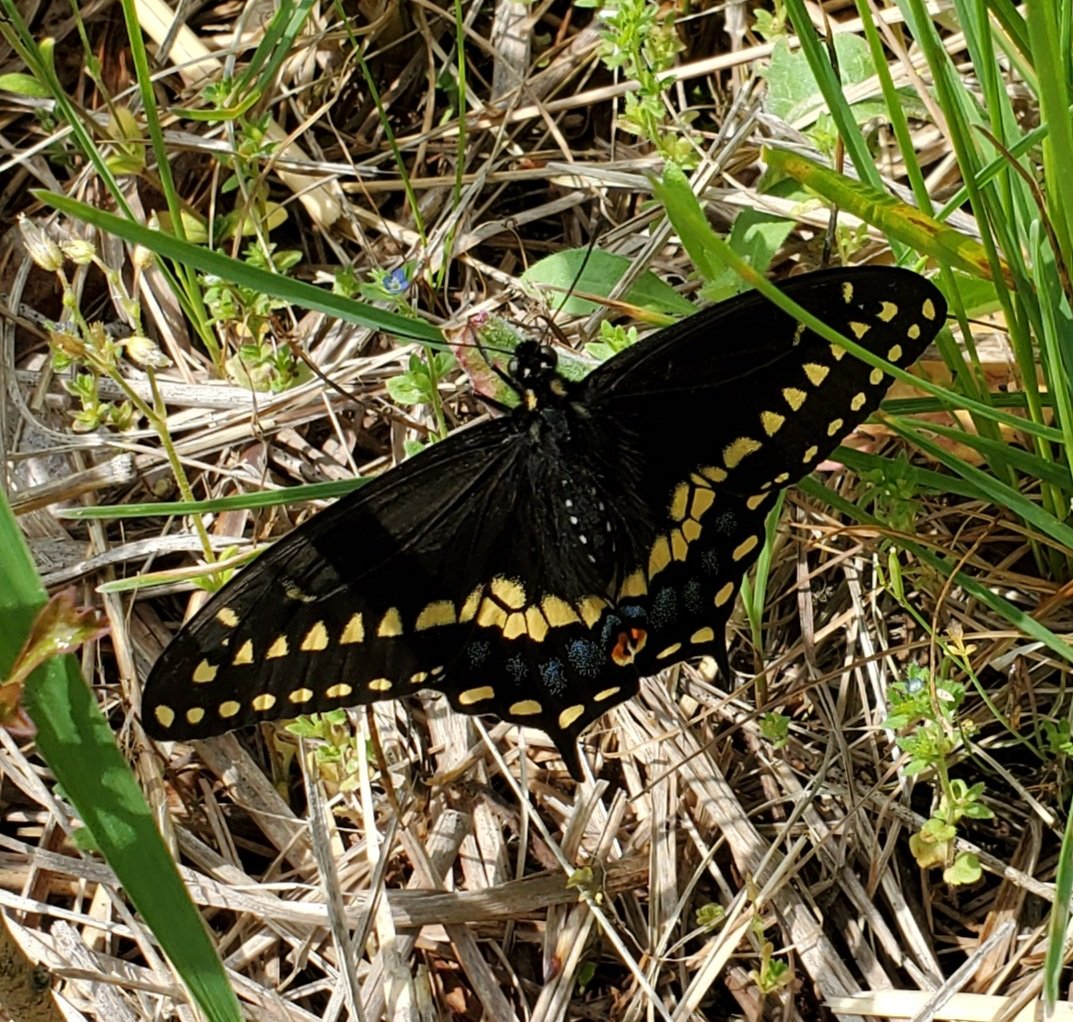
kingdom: Animalia
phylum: Arthropoda
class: Insecta
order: Lepidoptera
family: Papilionidae
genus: Papilio
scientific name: Papilio polyxenes
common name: Black Swallowtail
